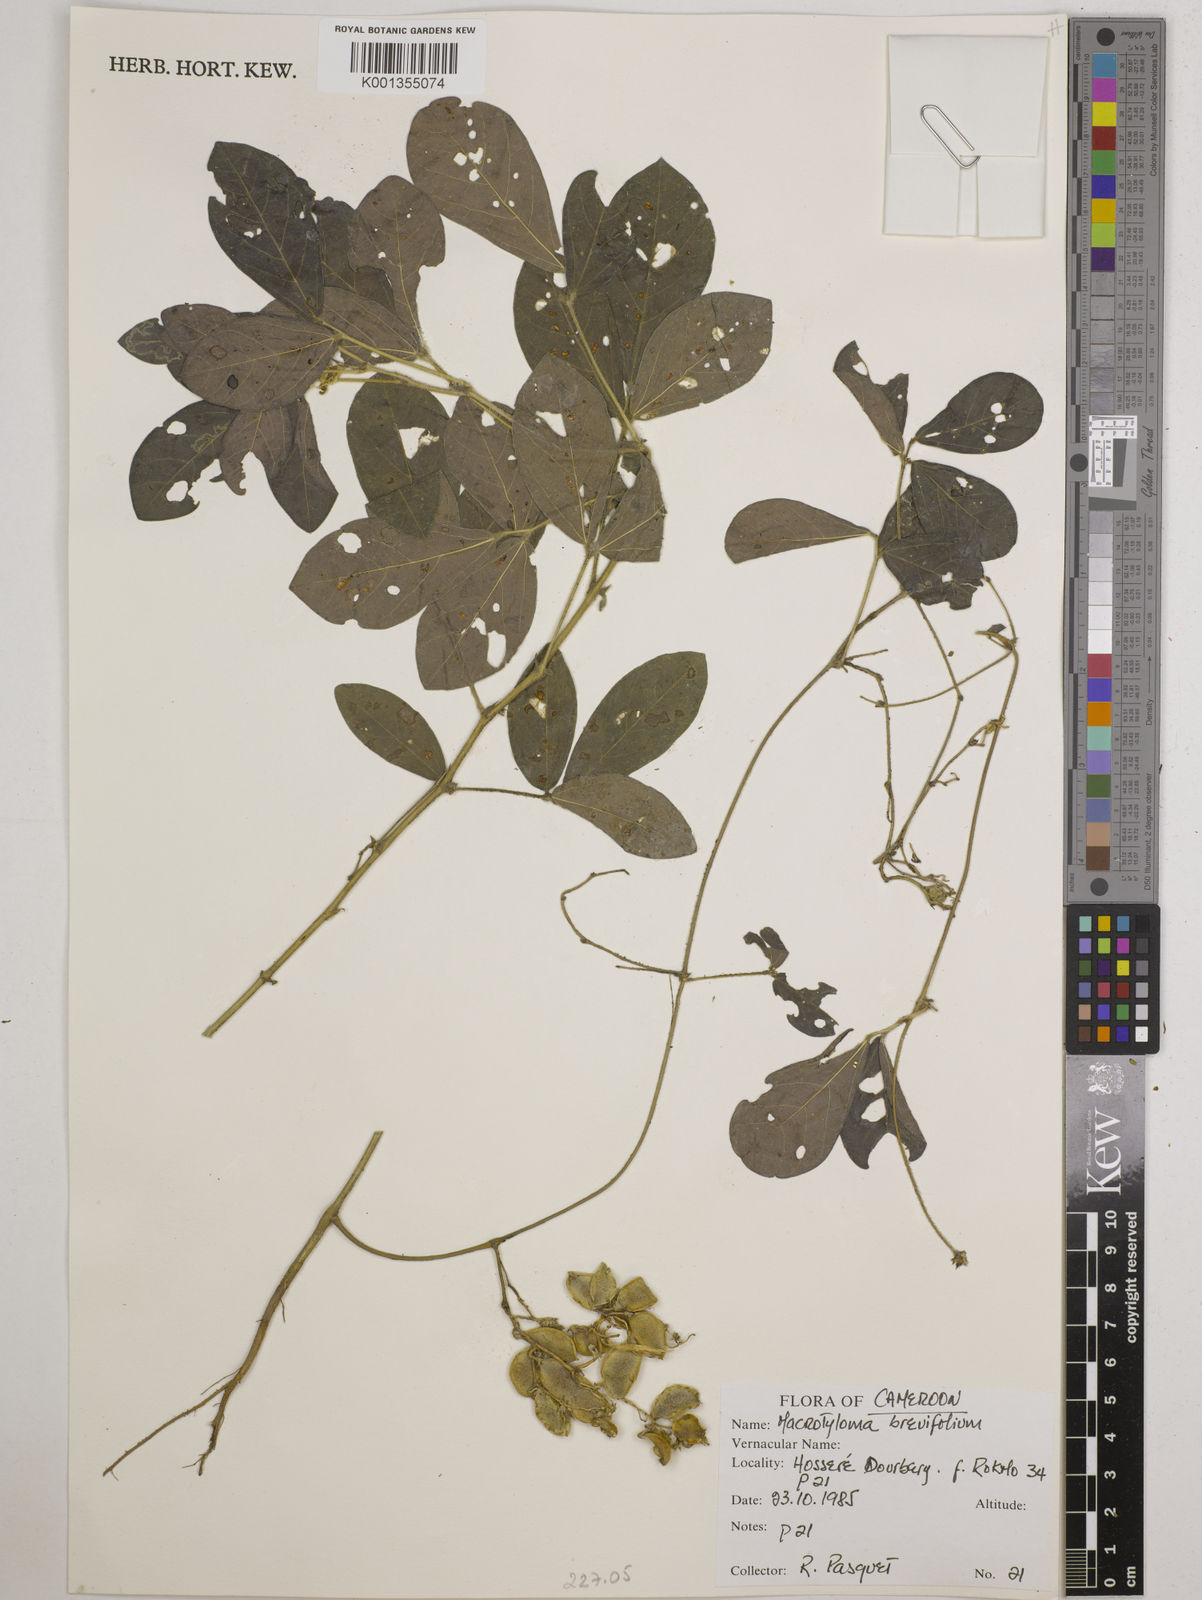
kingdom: Plantae
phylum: Tracheophyta
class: Magnoliopsida
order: Fabales
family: Fabaceae
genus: Macrotyloma
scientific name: Macrotyloma brevicaule
